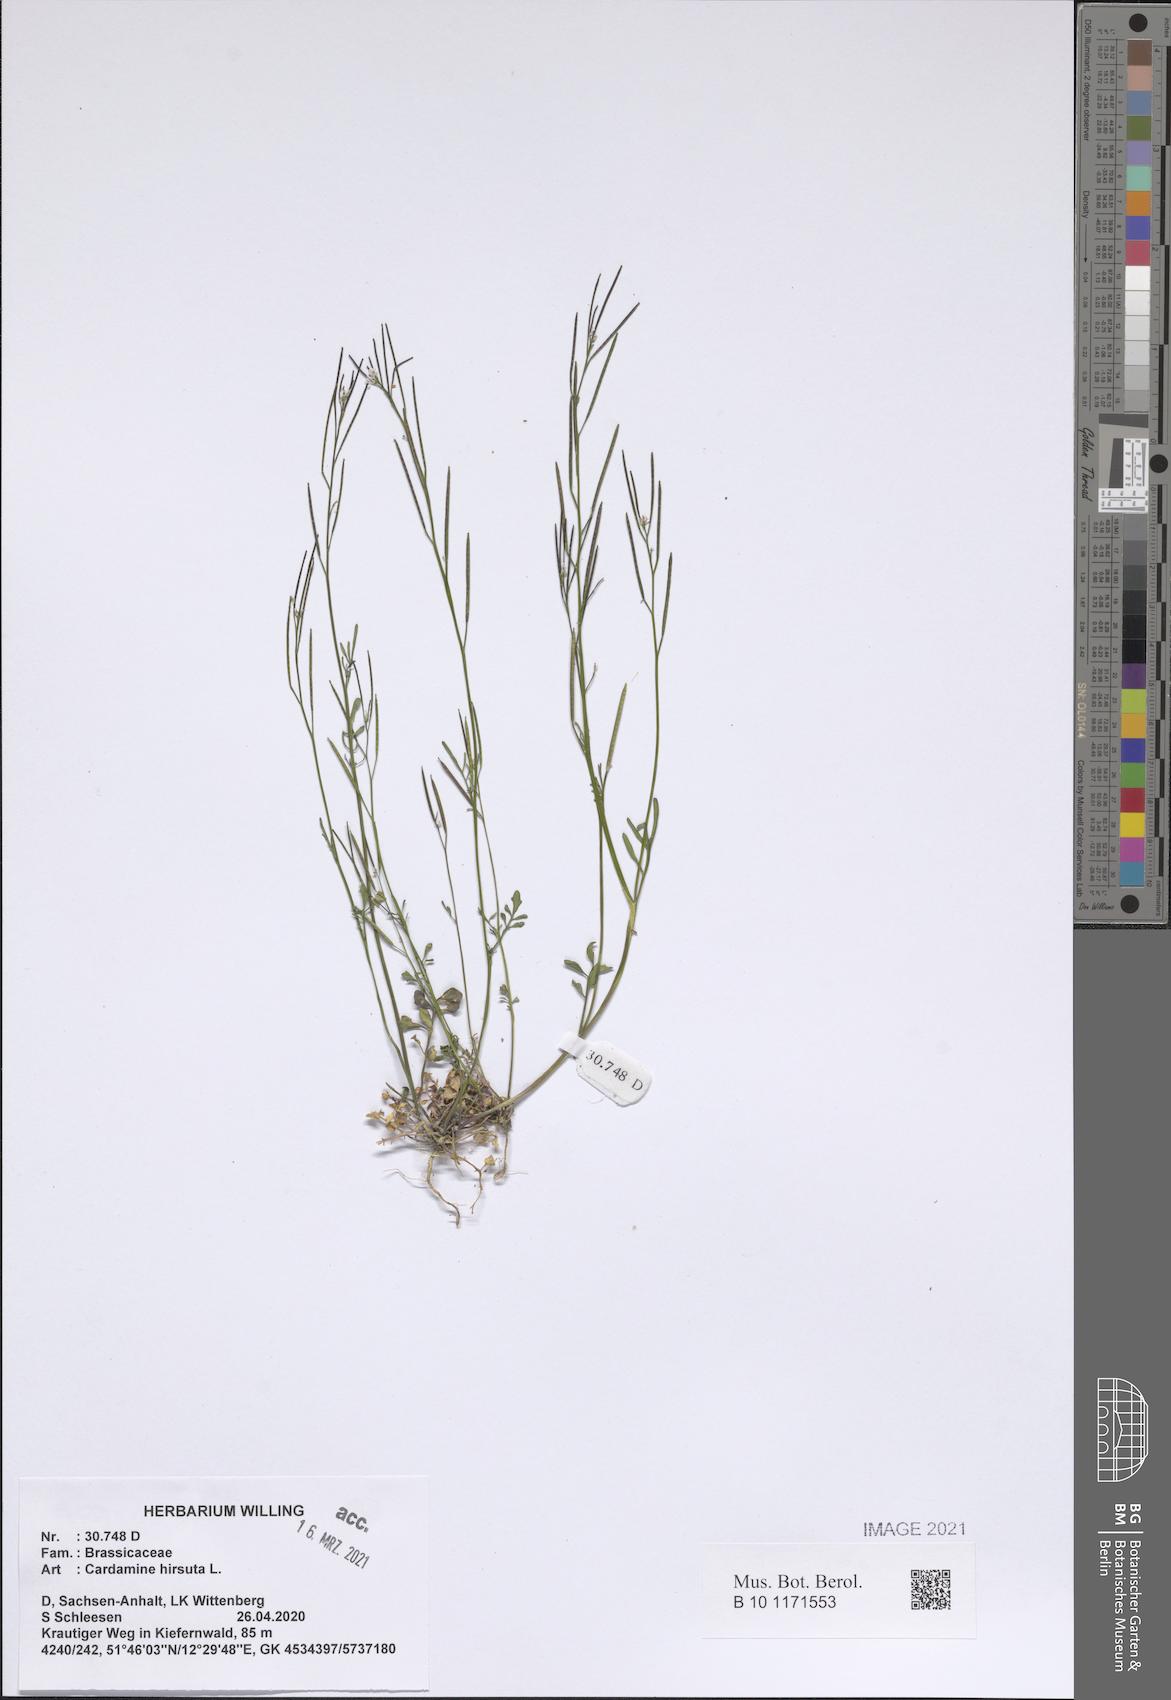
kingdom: Plantae
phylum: Tracheophyta
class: Magnoliopsida
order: Brassicales
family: Brassicaceae
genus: Cardamine
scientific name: Cardamine hirsuta
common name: Hairy bittercress
